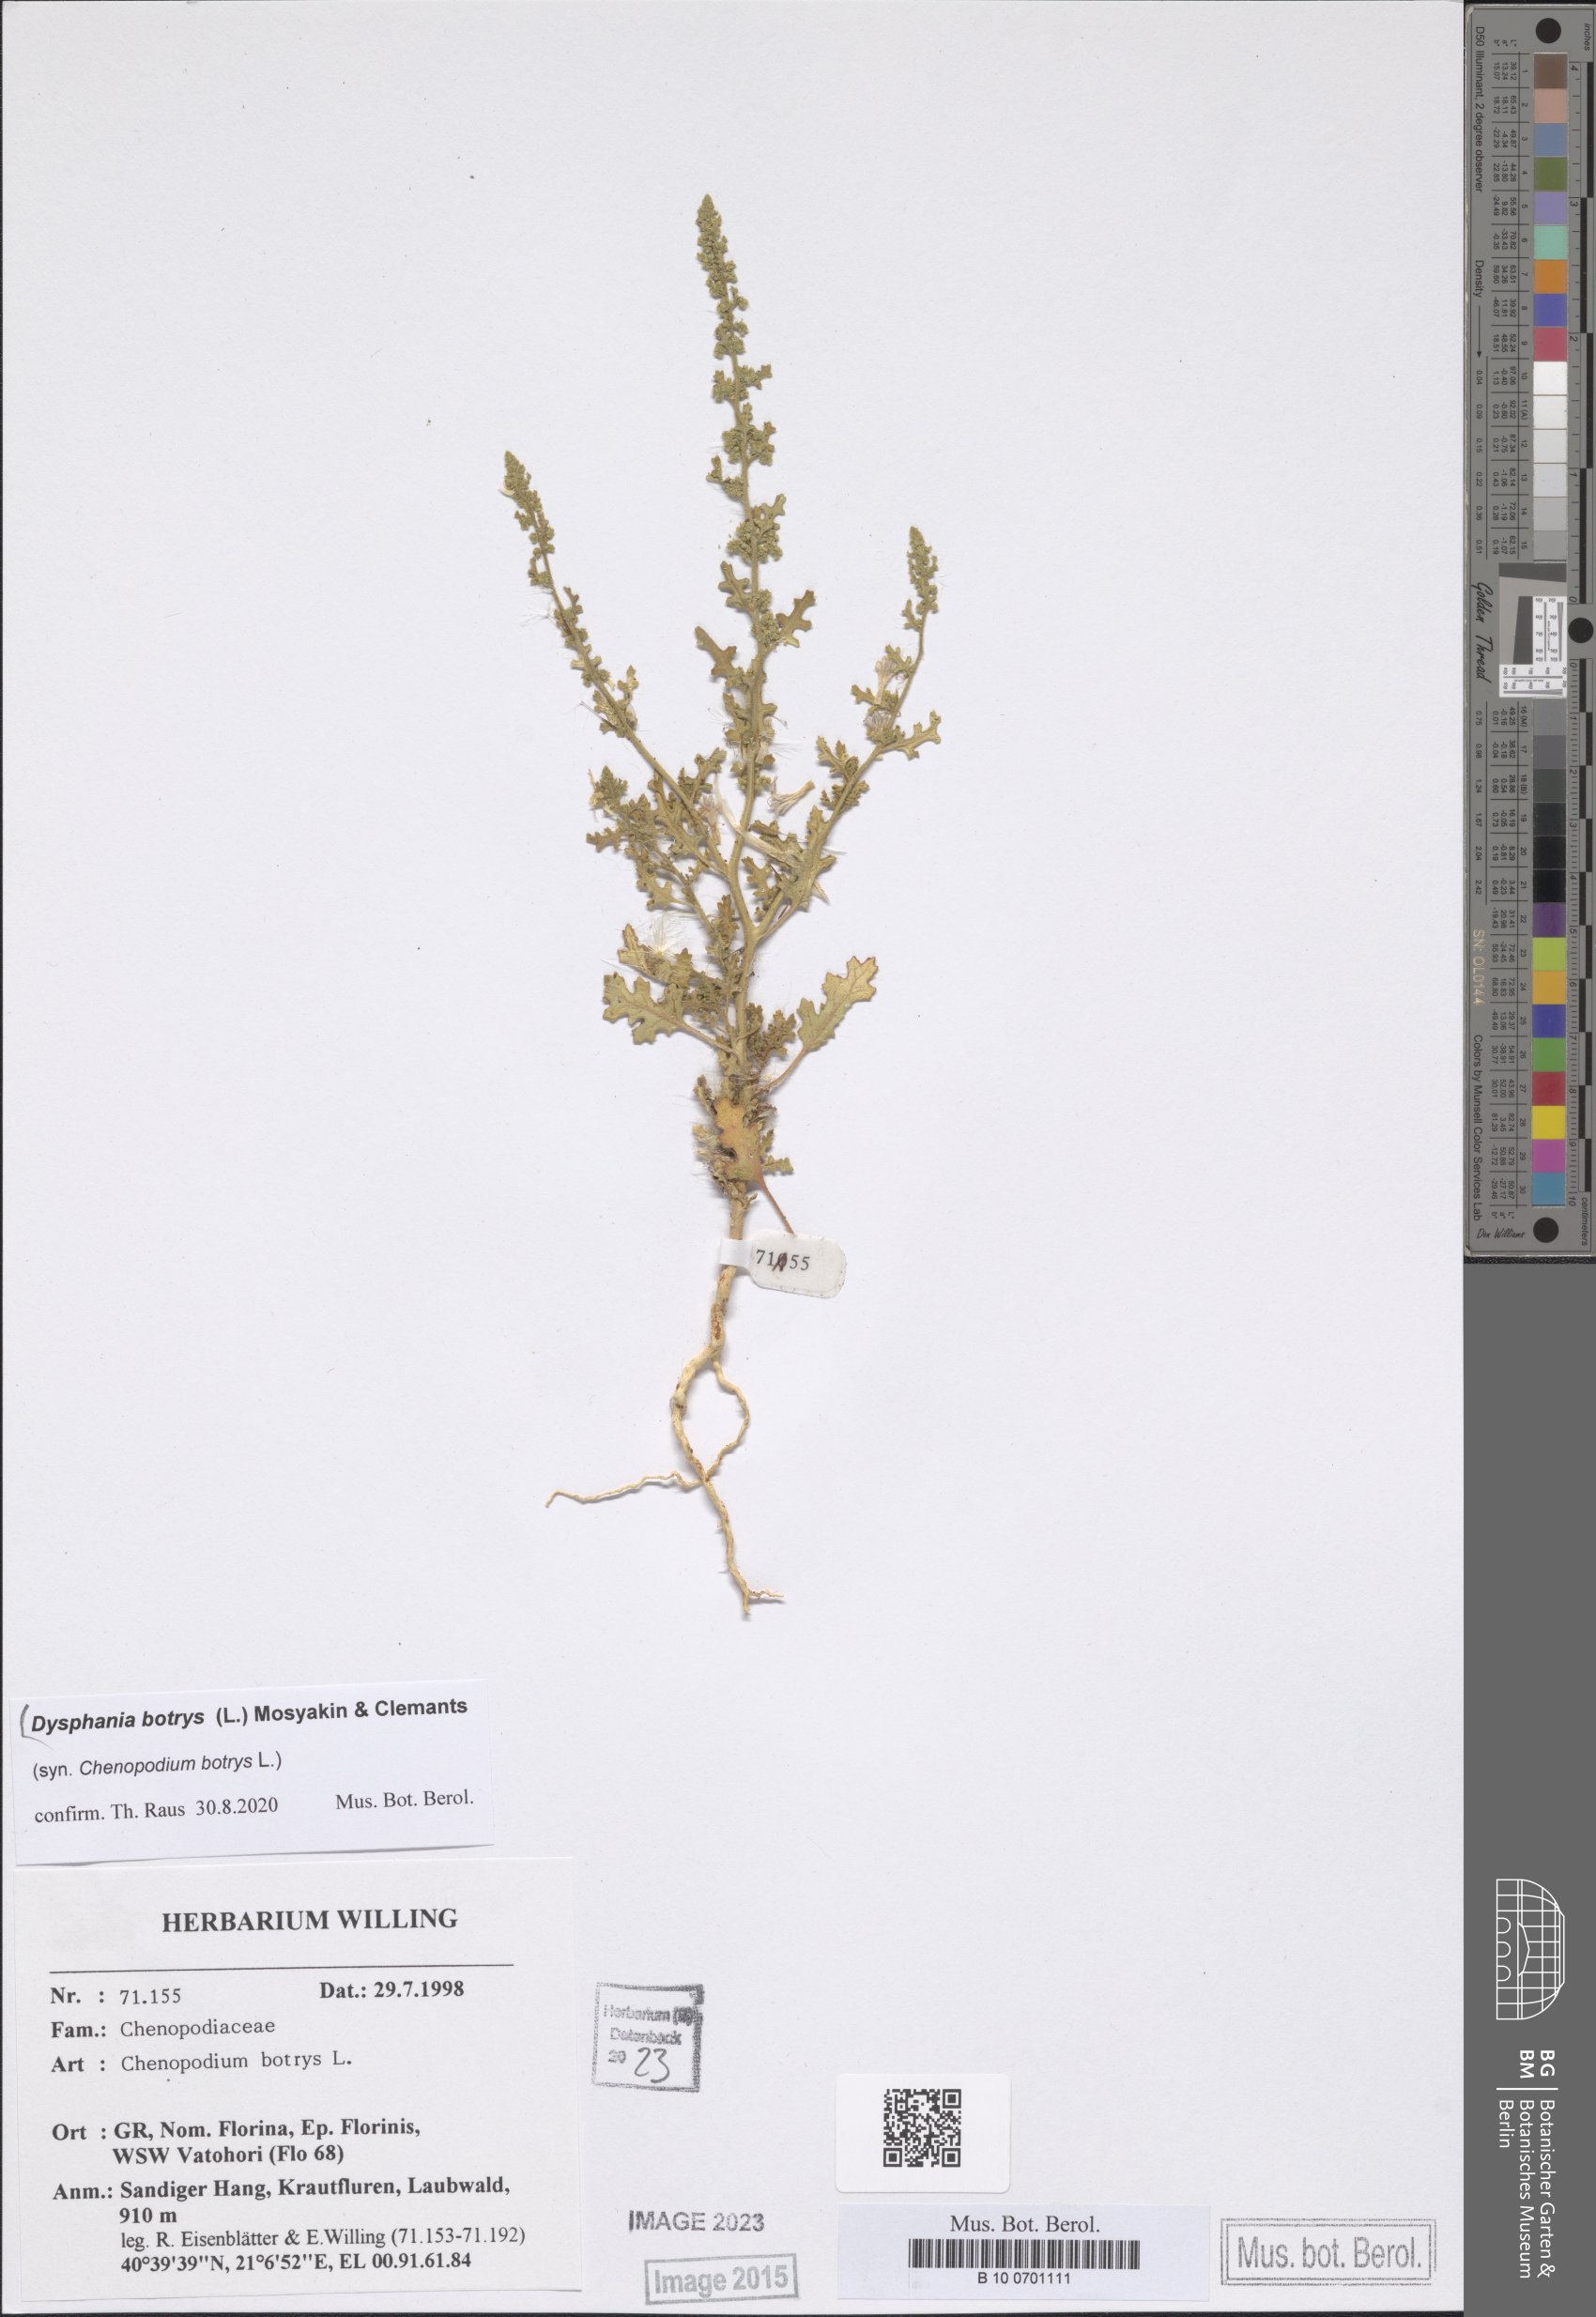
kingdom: Plantae
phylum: Tracheophyta
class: Magnoliopsida
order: Caryophyllales
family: Amaranthaceae
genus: Dysphania
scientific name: Dysphania botrys
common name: Feather-geranium
